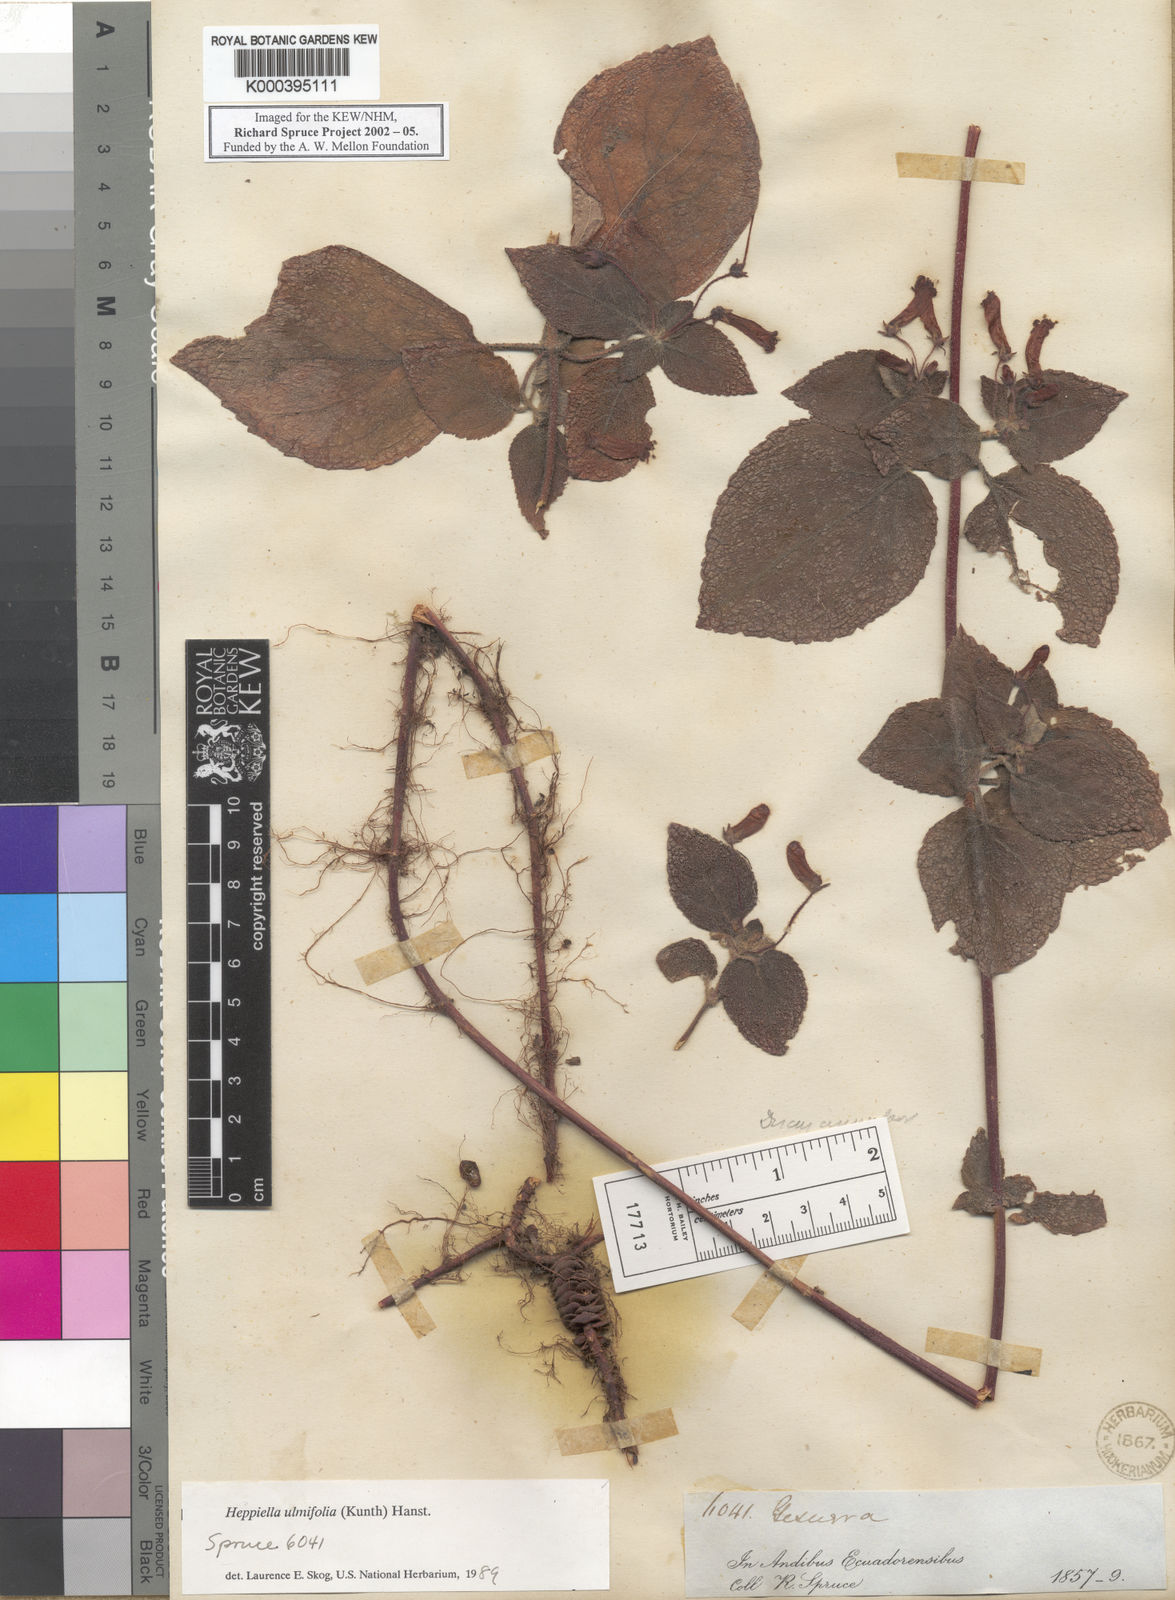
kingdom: Plantae
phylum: Tracheophyta
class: Magnoliopsida
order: Lamiales
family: Gesneriaceae
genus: Heppiella
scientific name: Heppiella ulmifolia
